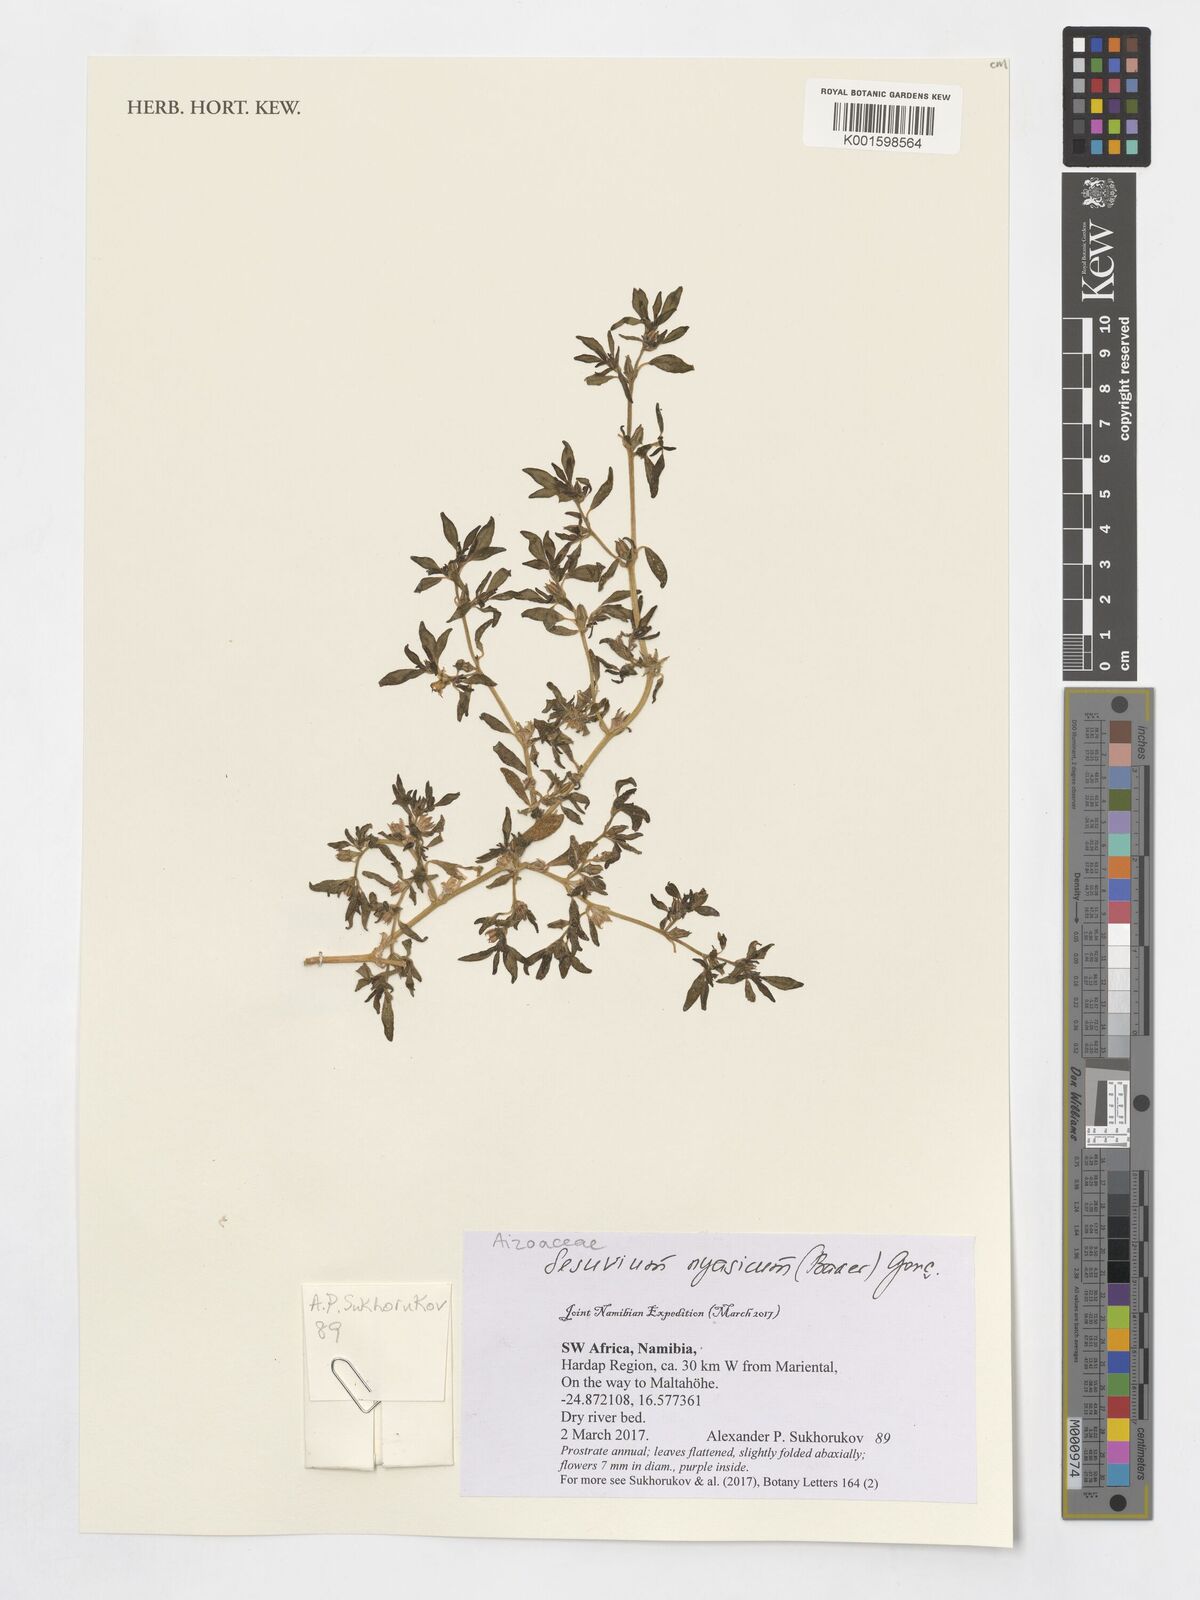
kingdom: Plantae
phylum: Tracheophyta
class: Magnoliopsida
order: Caryophyllales
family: Aizoaceae
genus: Sesuvium
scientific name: Sesuvium hydaspicum
